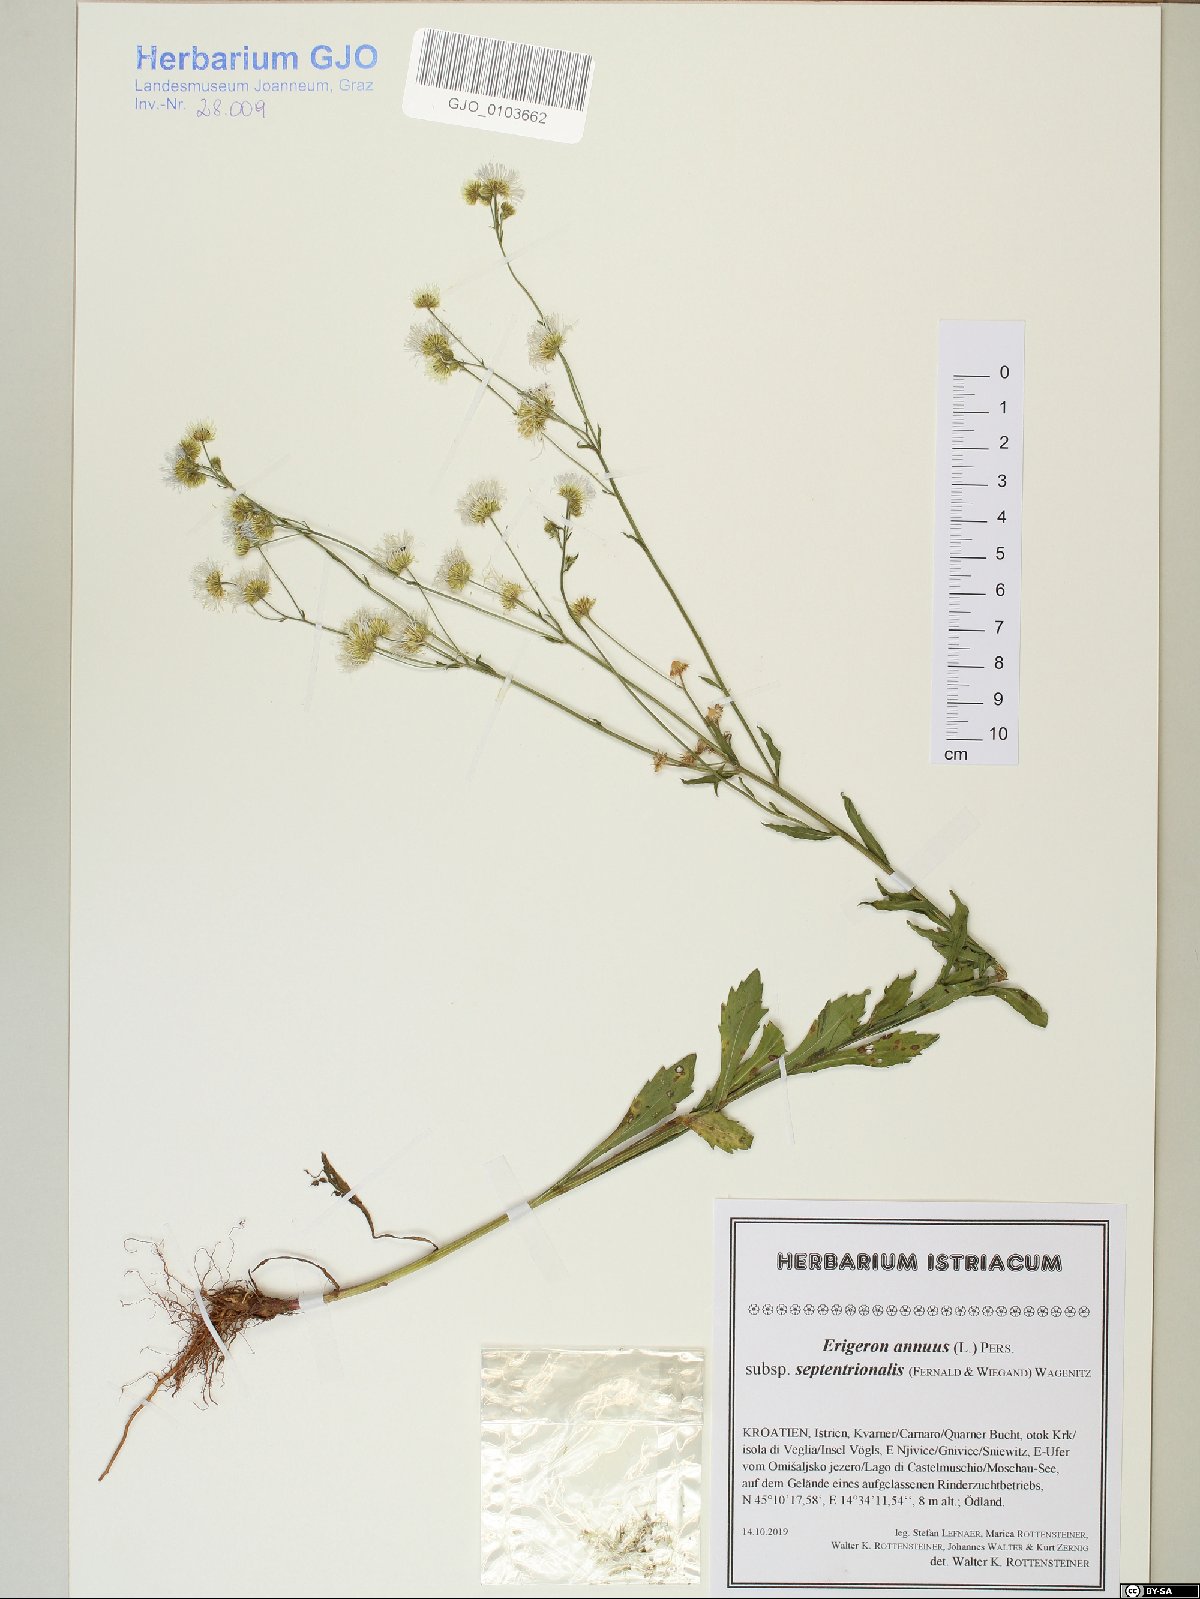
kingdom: Plantae
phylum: Tracheophyta
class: Magnoliopsida
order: Asterales
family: Asteraceae
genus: Erigeron
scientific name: Erigeron annuus
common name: Tall fleabane
